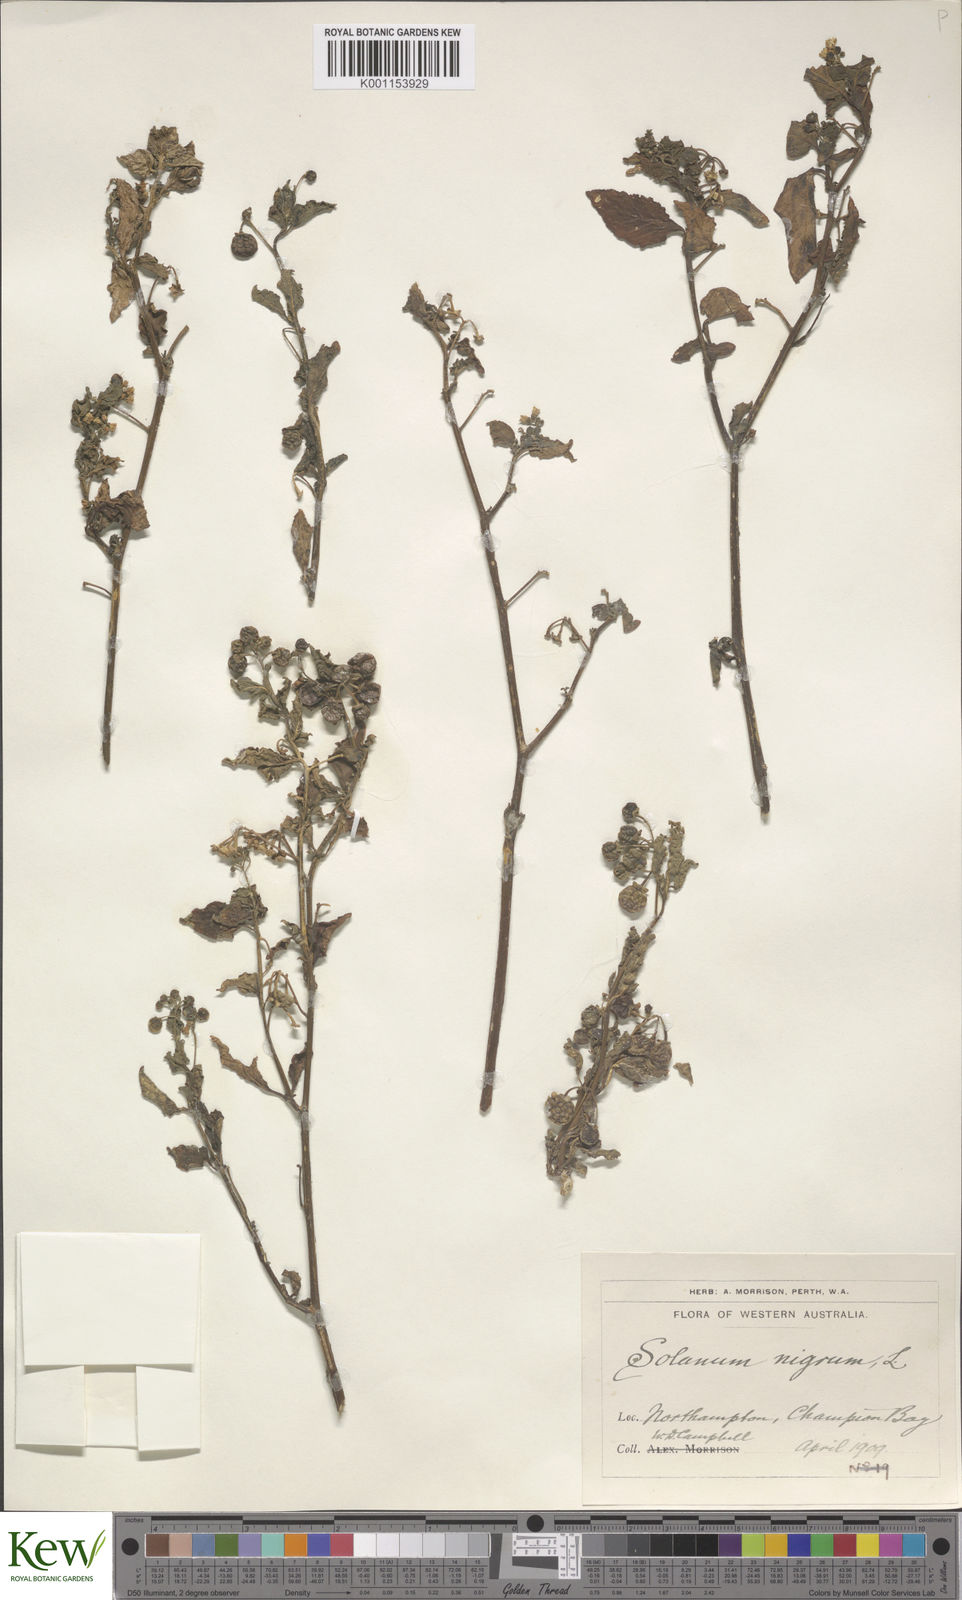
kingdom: Plantae
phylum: Tracheophyta
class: Magnoliopsida
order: Solanales
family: Solanaceae
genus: Solanum
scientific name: Solanum nigrum
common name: Black nightshade
